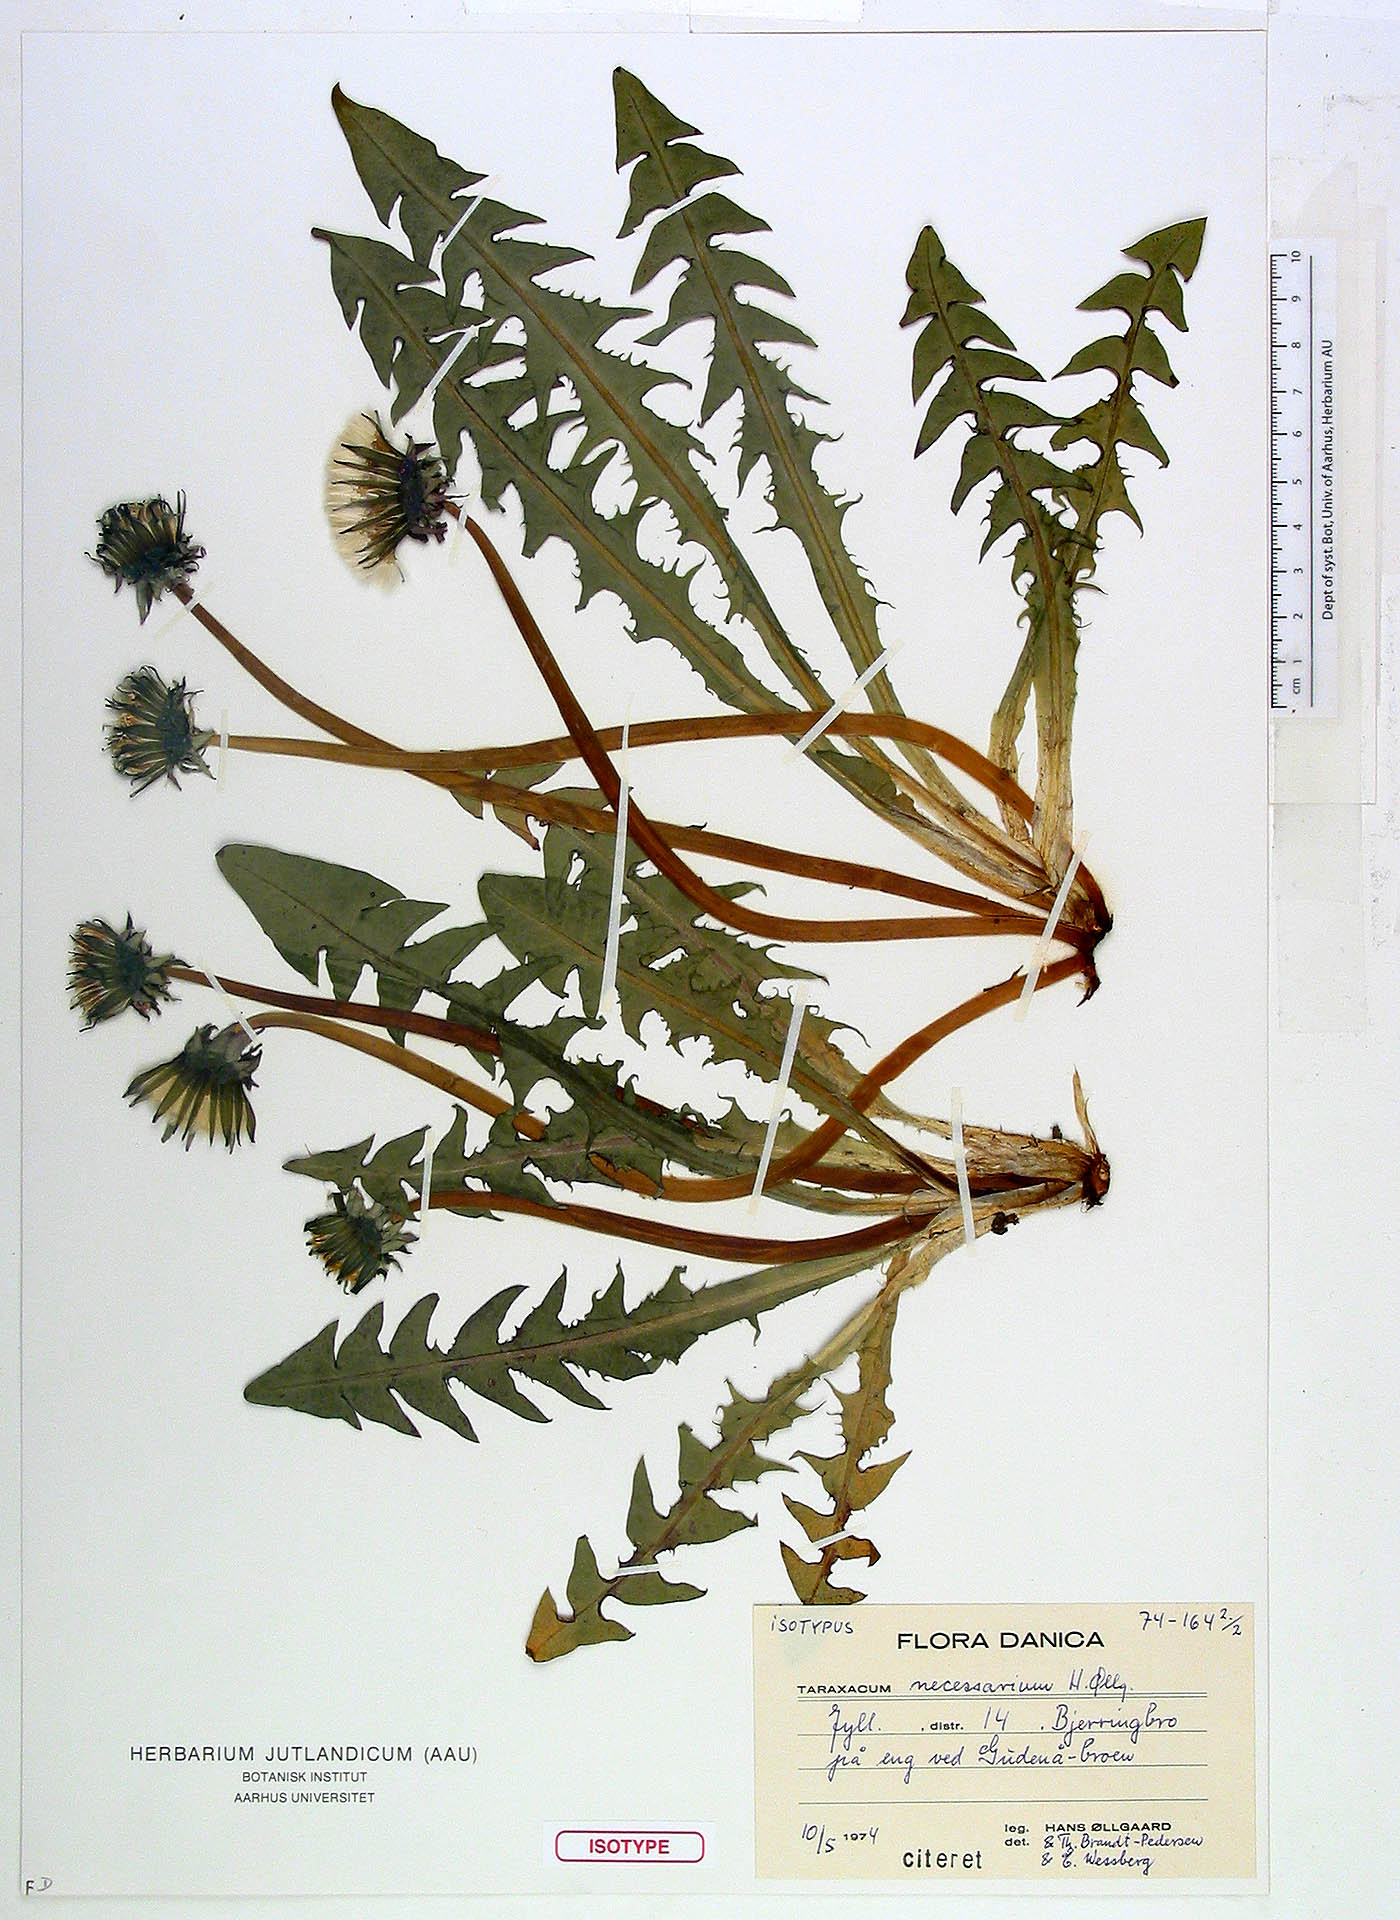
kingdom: Plantae
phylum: Tracheophyta
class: Magnoliopsida
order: Asterales
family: Asteraceae
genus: Taraxacum
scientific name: Taraxacum necessarium
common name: Dark-leaved dandelion
